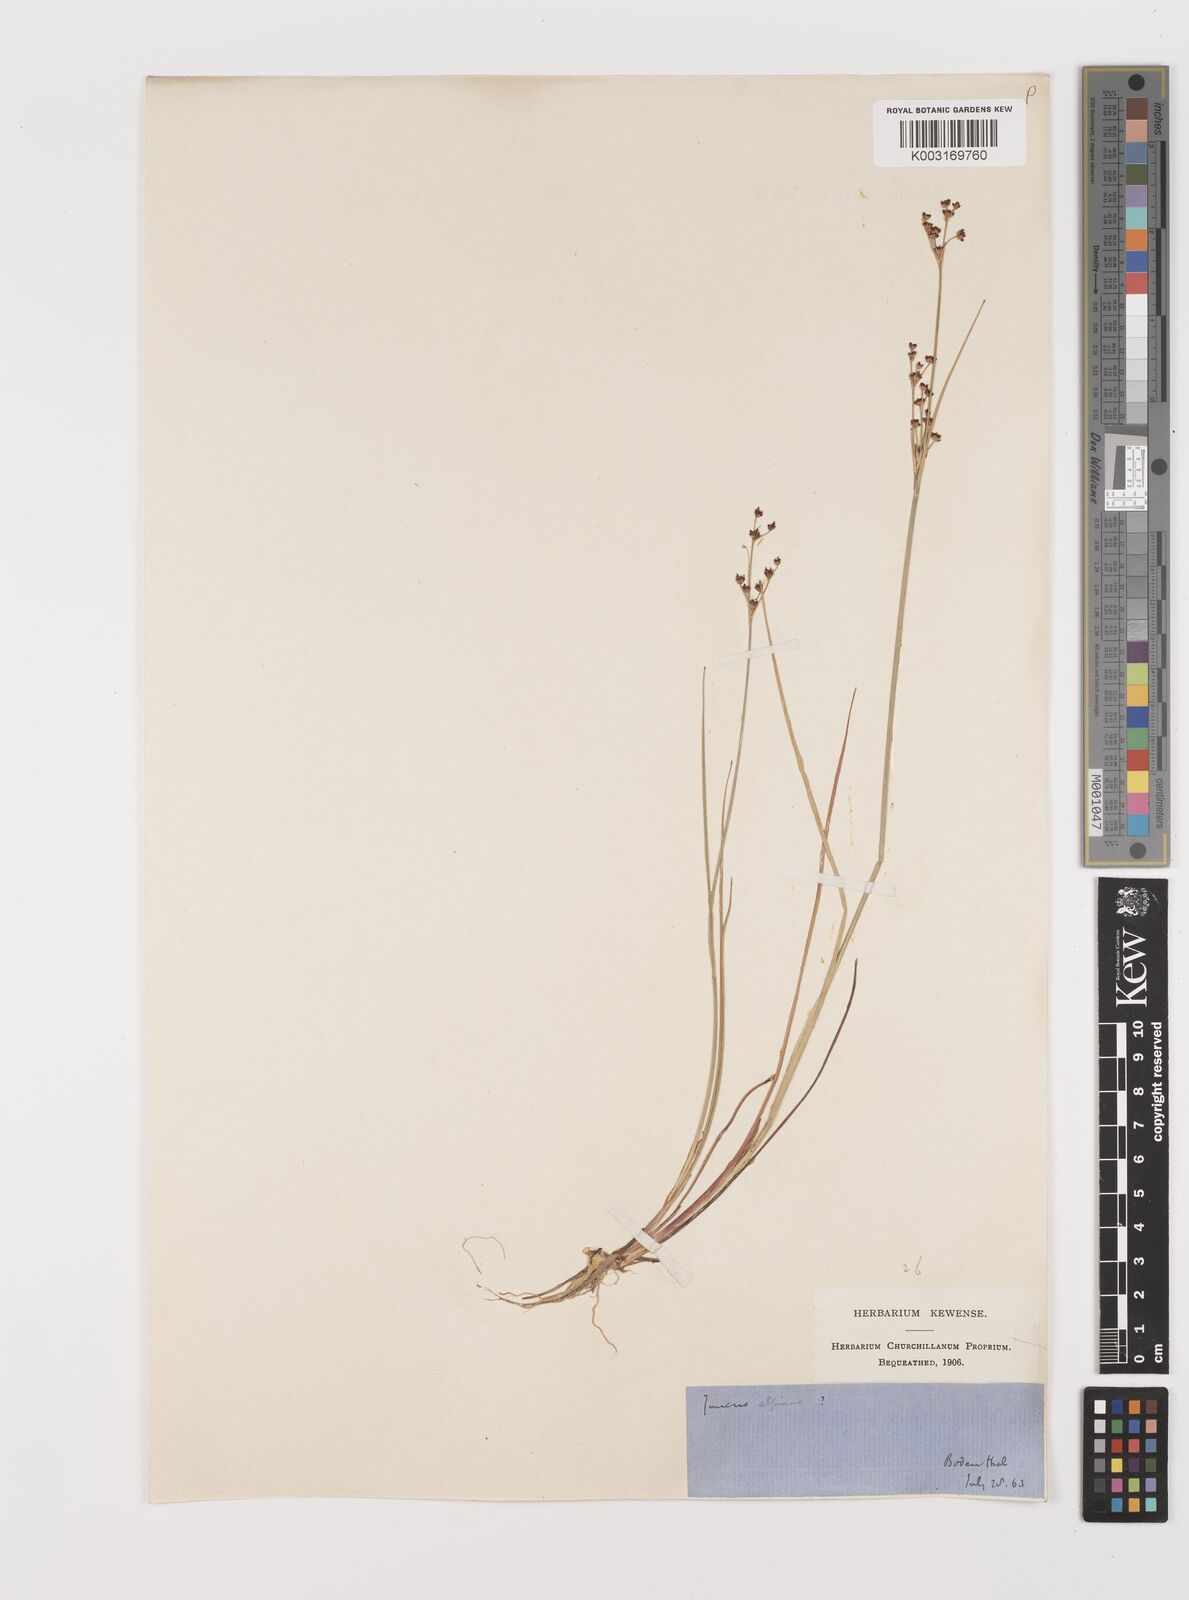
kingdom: Plantae
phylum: Tracheophyta
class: Liliopsida
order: Poales
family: Juncaceae
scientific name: Juncaceae
